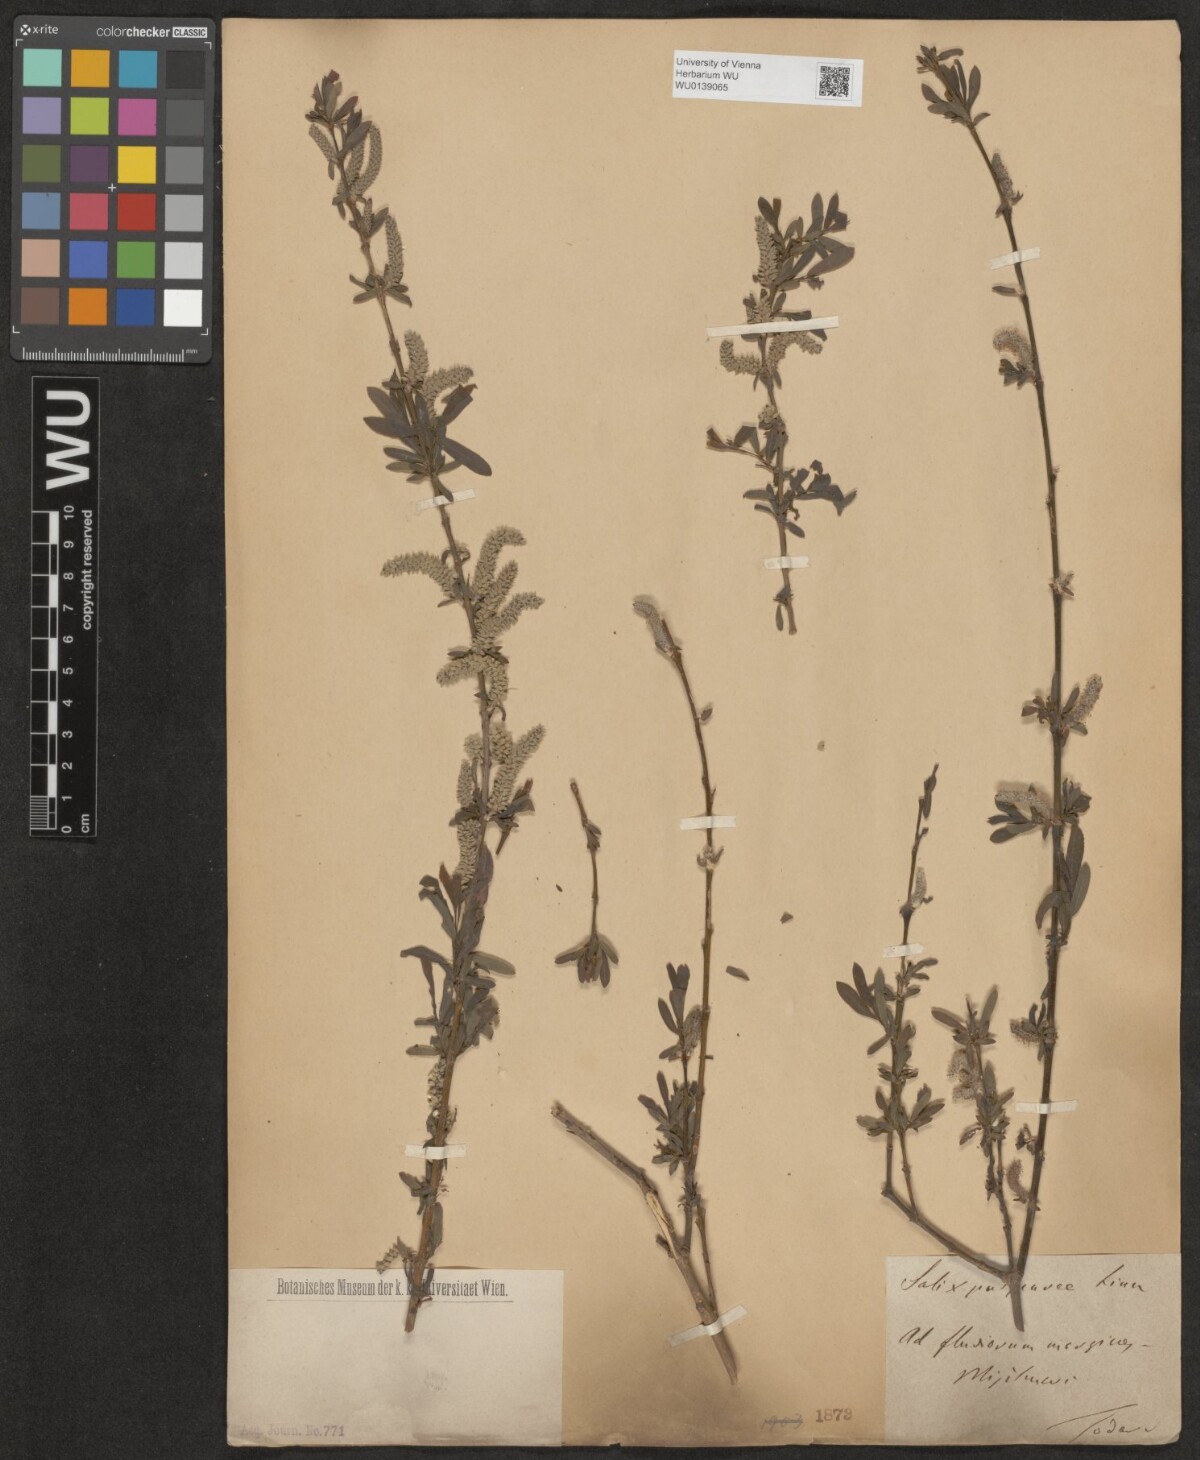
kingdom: Plantae
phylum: Tracheophyta
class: Magnoliopsida
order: Malpighiales
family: Salicaceae
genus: Salix
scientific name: Salix purpurea
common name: Purple willow
